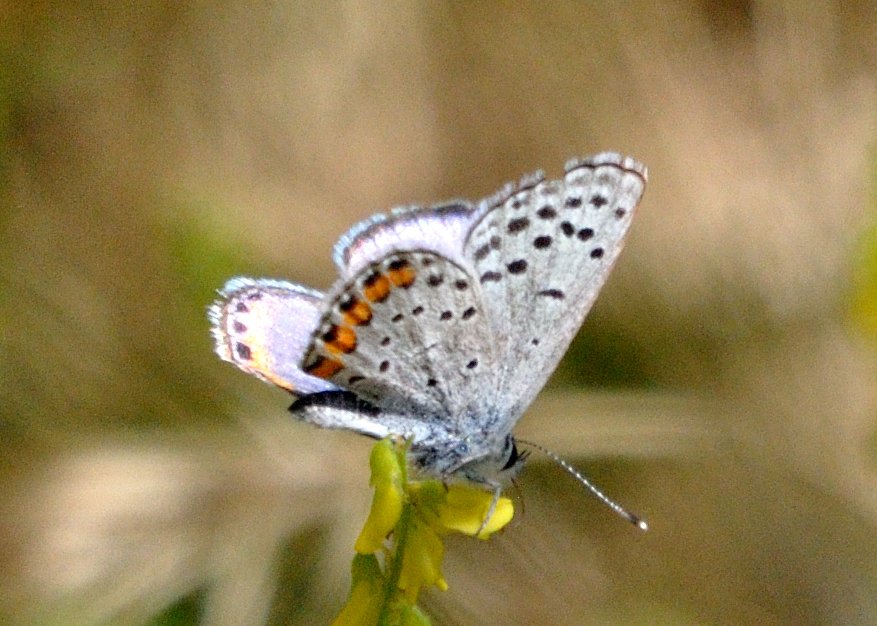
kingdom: Animalia
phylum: Arthropoda
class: Insecta
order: Lepidoptera
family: Lycaenidae
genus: Plebejus
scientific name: Plebejus acmon
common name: Acmon Blue
